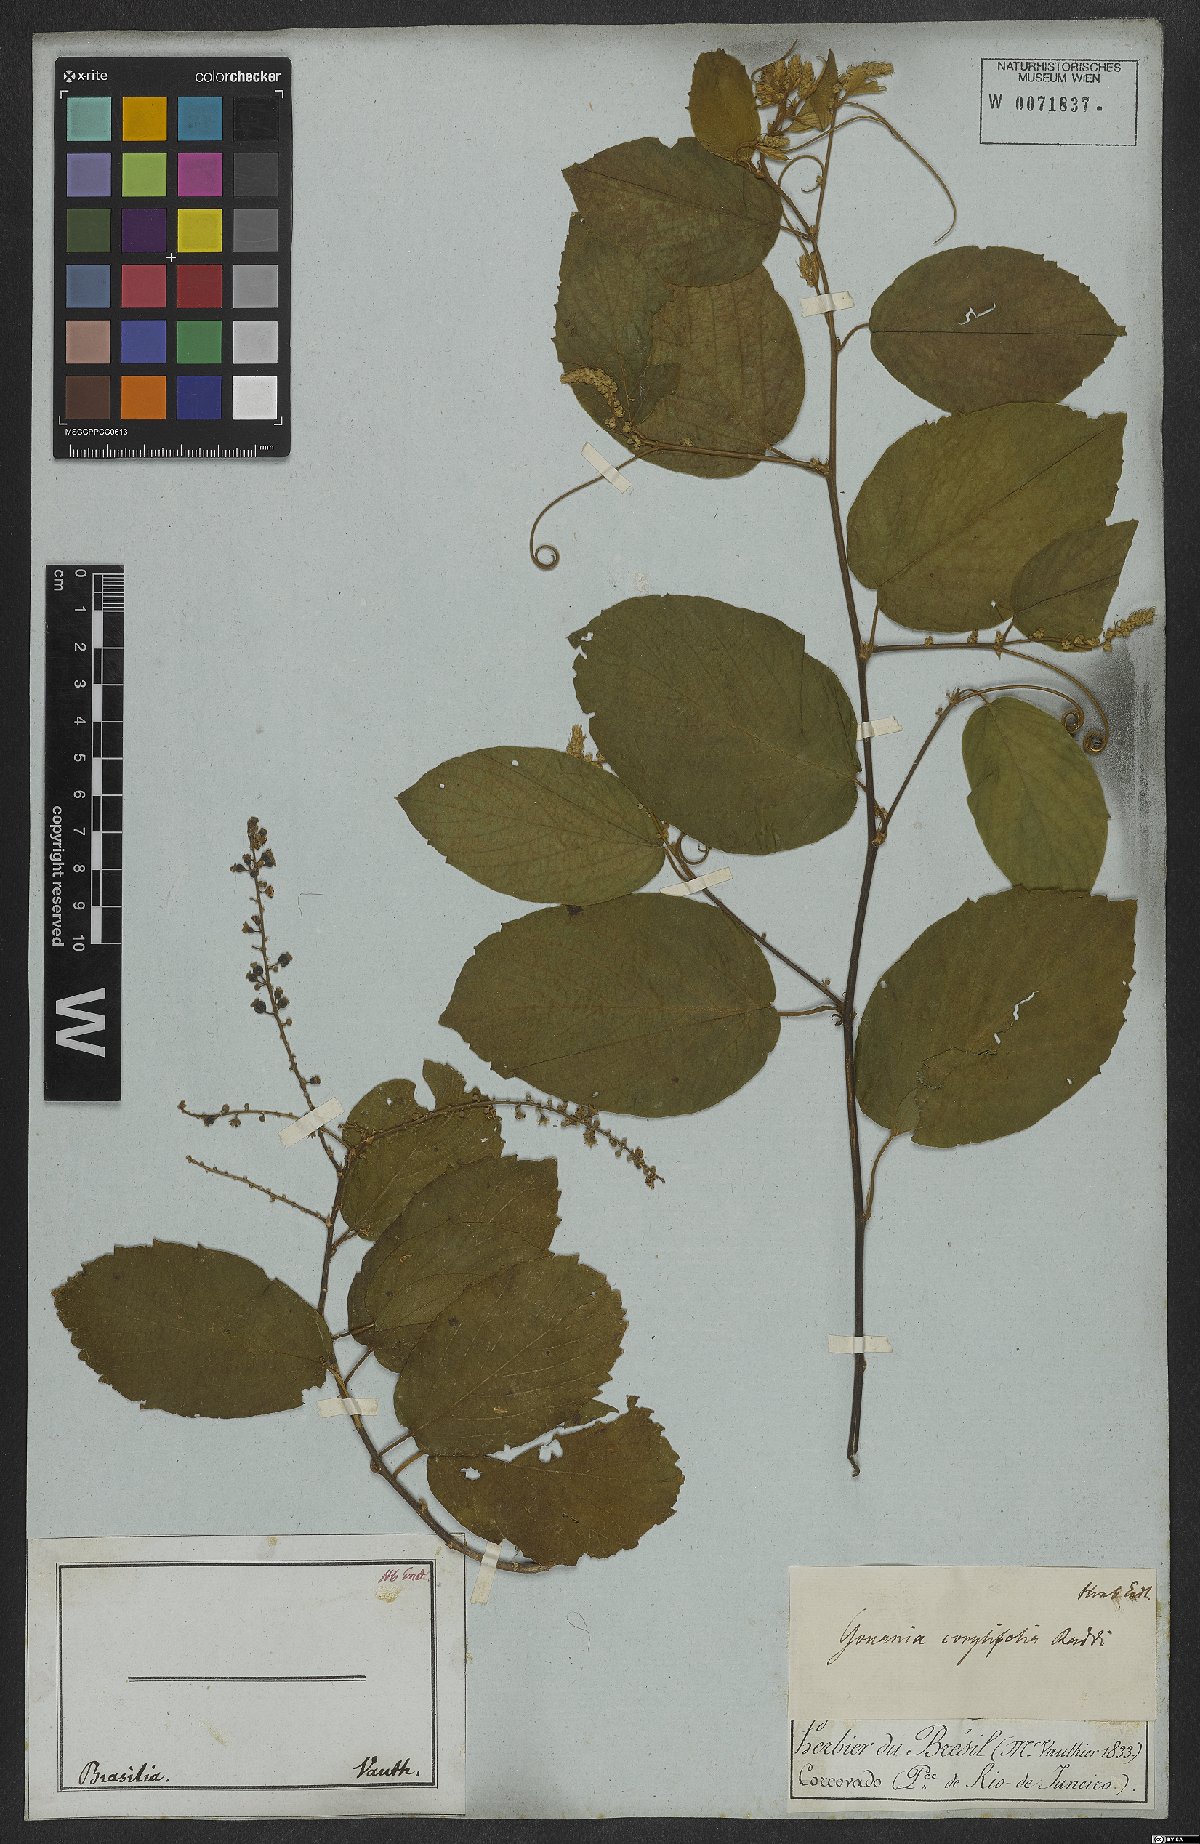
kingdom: Plantae
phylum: Tracheophyta
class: Magnoliopsida
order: Rosales
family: Rhamnaceae
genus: Gouania
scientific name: Gouania corylifolia
